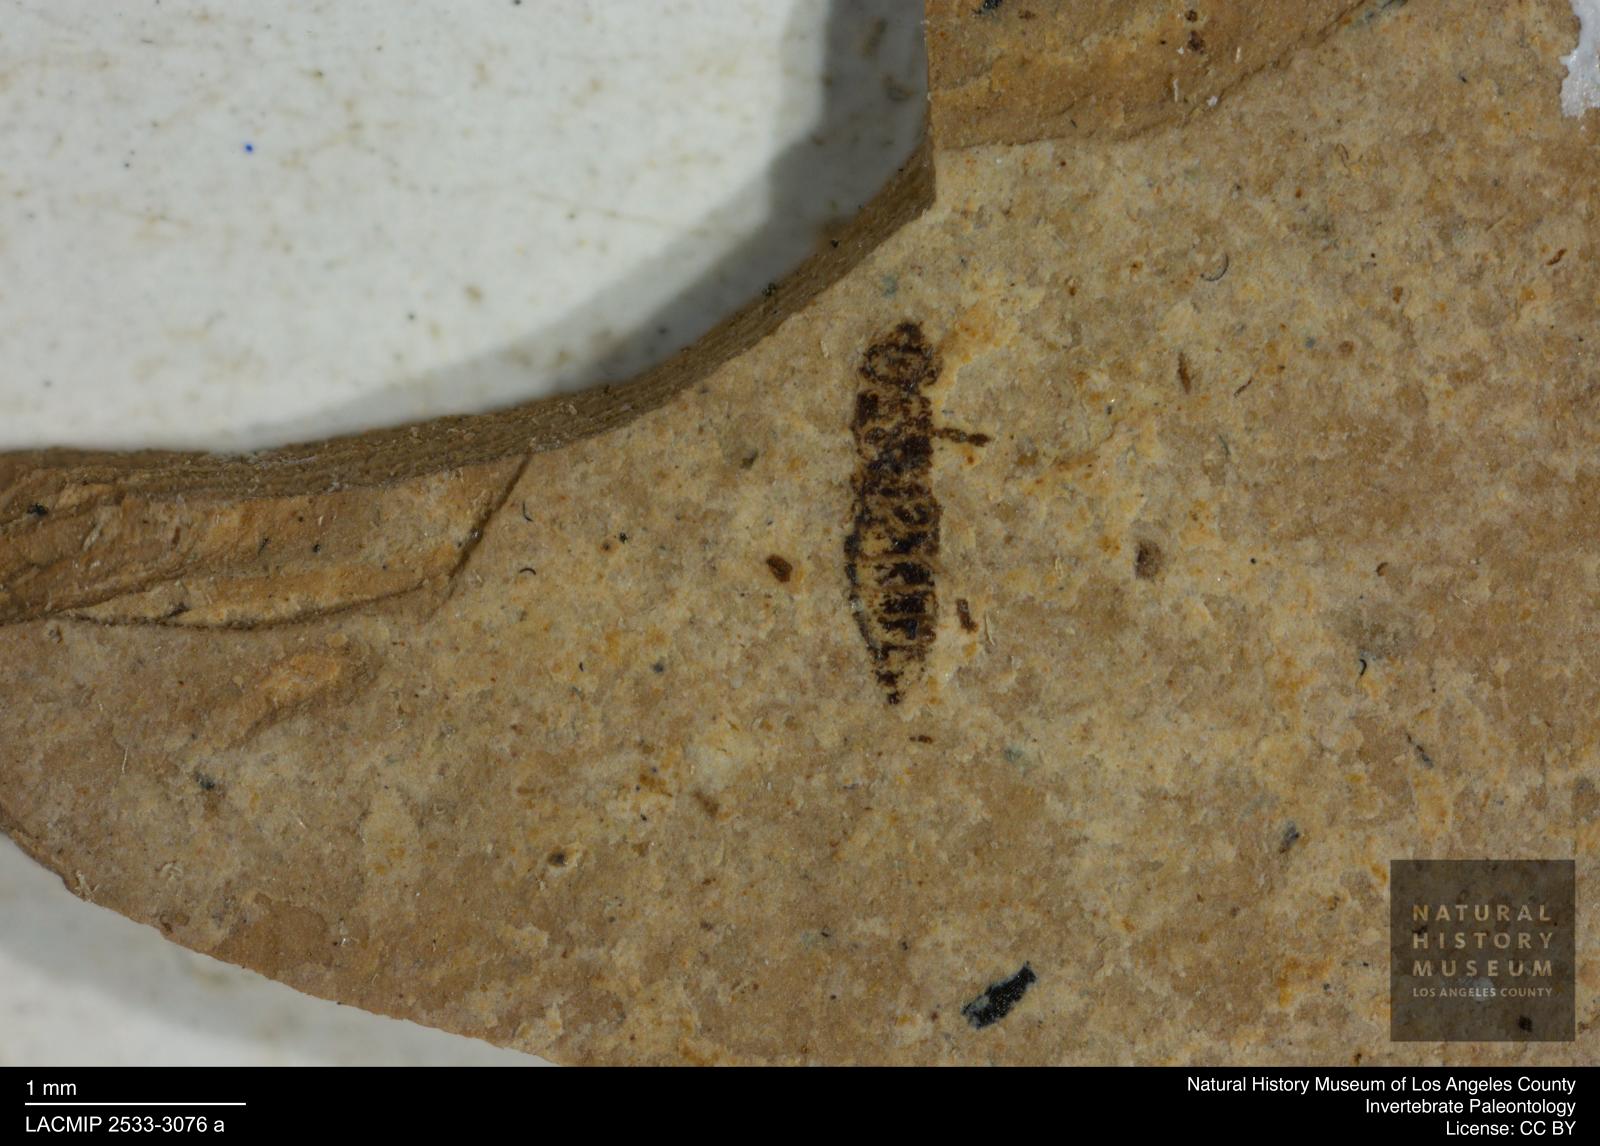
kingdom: Animalia
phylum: Arthropoda
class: Insecta
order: Thysanoptera
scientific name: Thysanoptera
